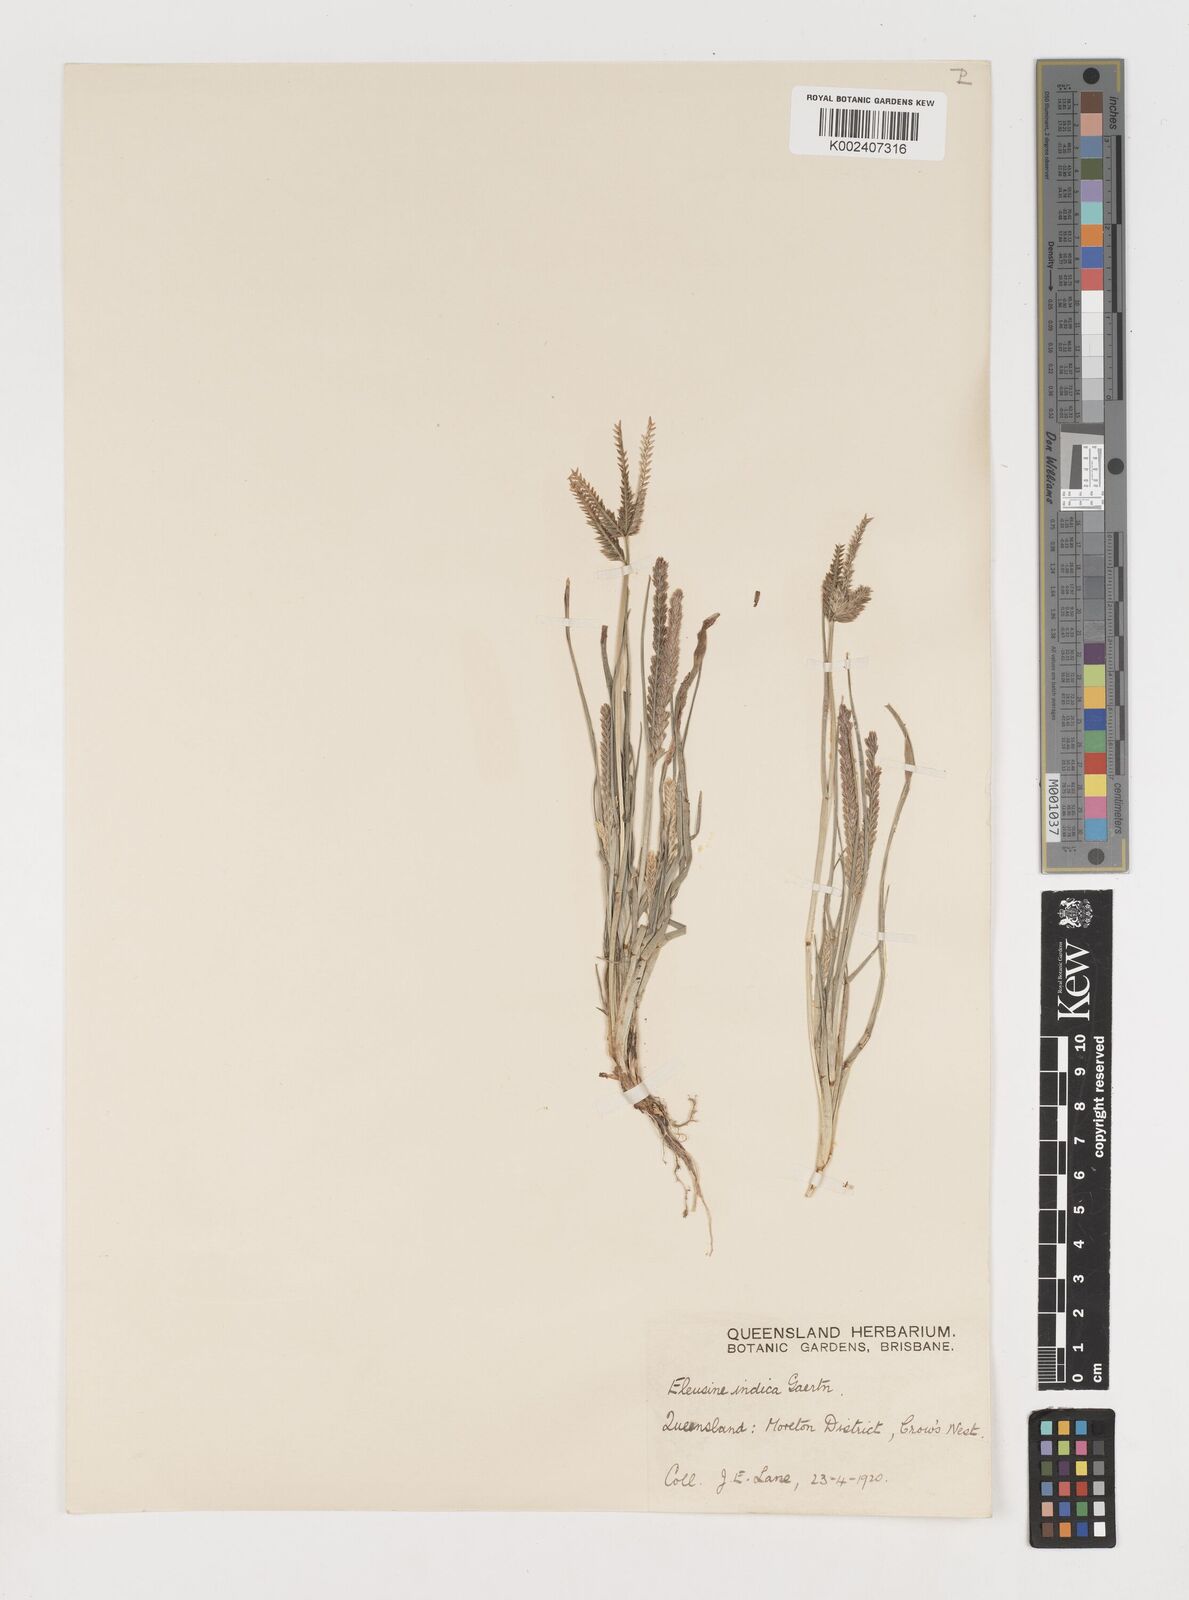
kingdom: Plantae
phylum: Tracheophyta
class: Liliopsida
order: Poales
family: Poaceae
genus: Eleusine
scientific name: Eleusine indica
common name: Yard-grass
